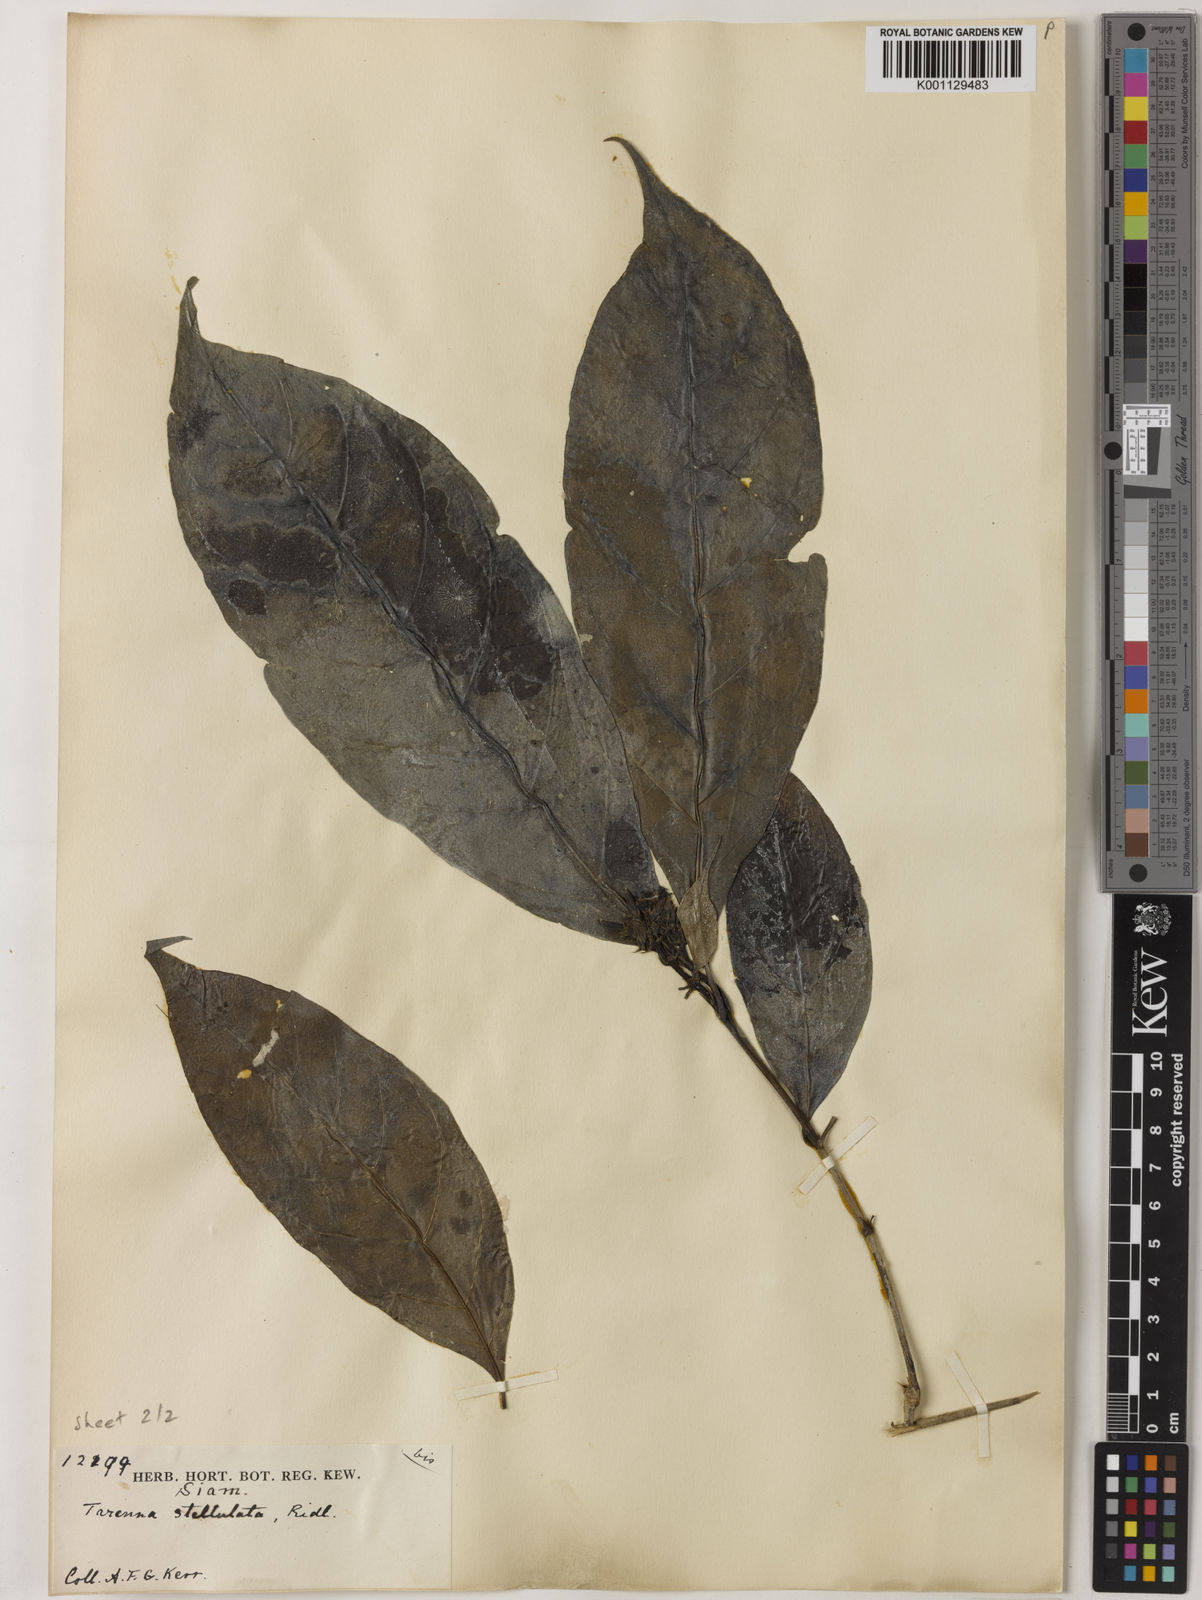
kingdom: Plantae
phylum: Tracheophyta
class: Magnoliopsida
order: Gentianales
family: Rubiaceae
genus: Tarenna
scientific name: Tarenna puberula
